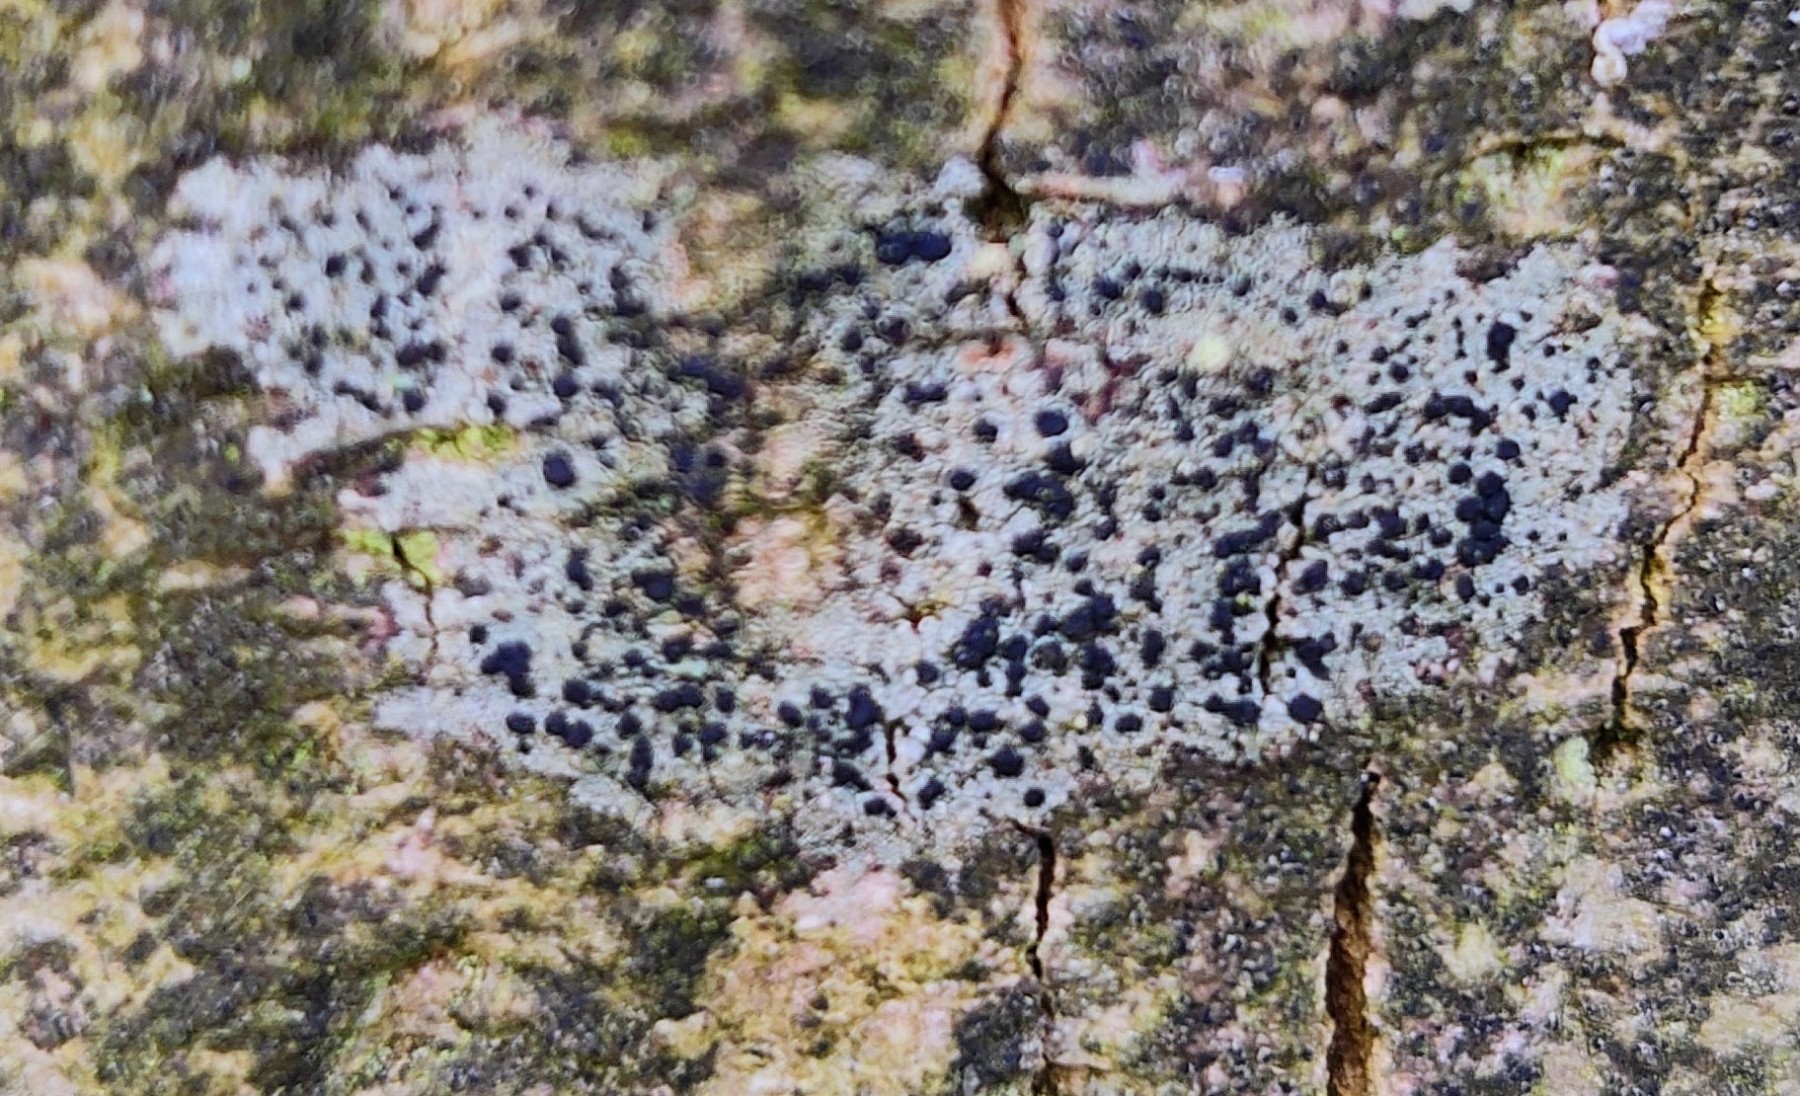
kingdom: Fungi
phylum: Ascomycota
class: Lecanoromycetes
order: Lecanorales
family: Lecanoraceae
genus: Lecidella
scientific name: Lecidella elaeochroma
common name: grågrøn skivelav
